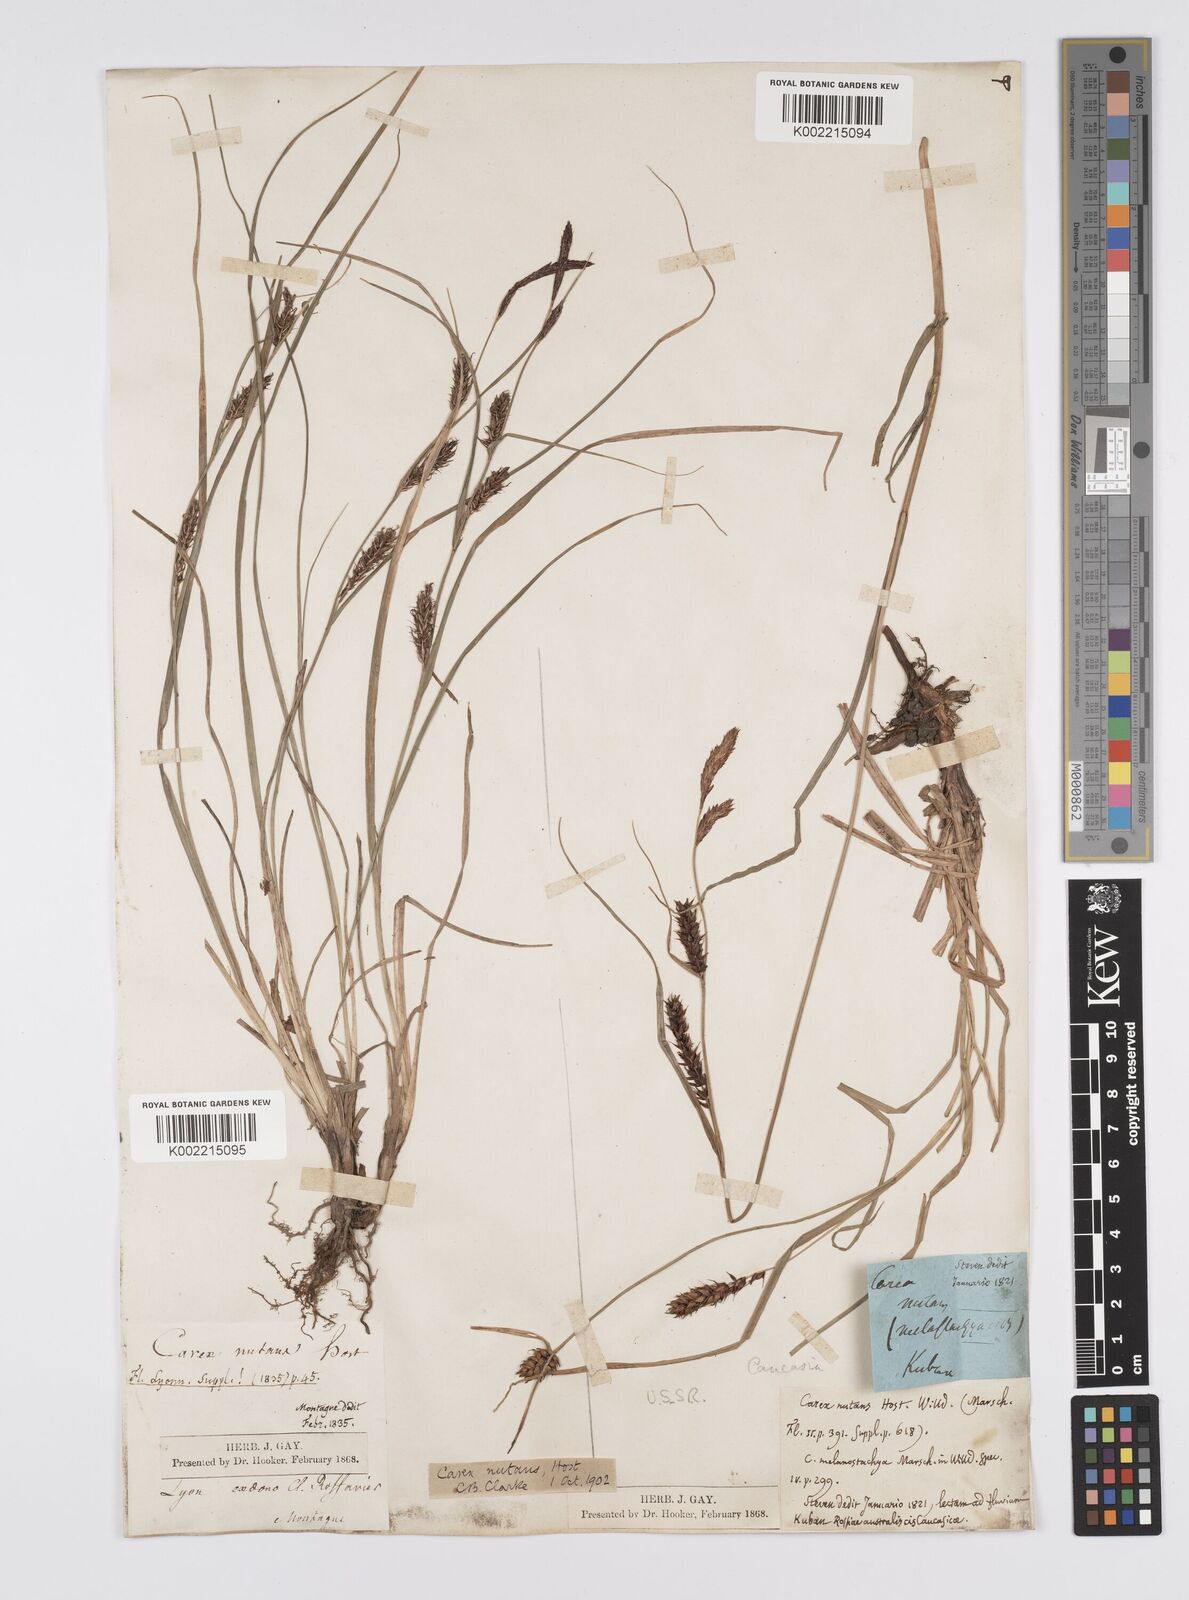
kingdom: Plantae
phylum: Tracheophyta
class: Liliopsida
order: Poales
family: Cyperaceae
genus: Carex
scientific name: Carex melanostachya
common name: Black-spiked sedge
